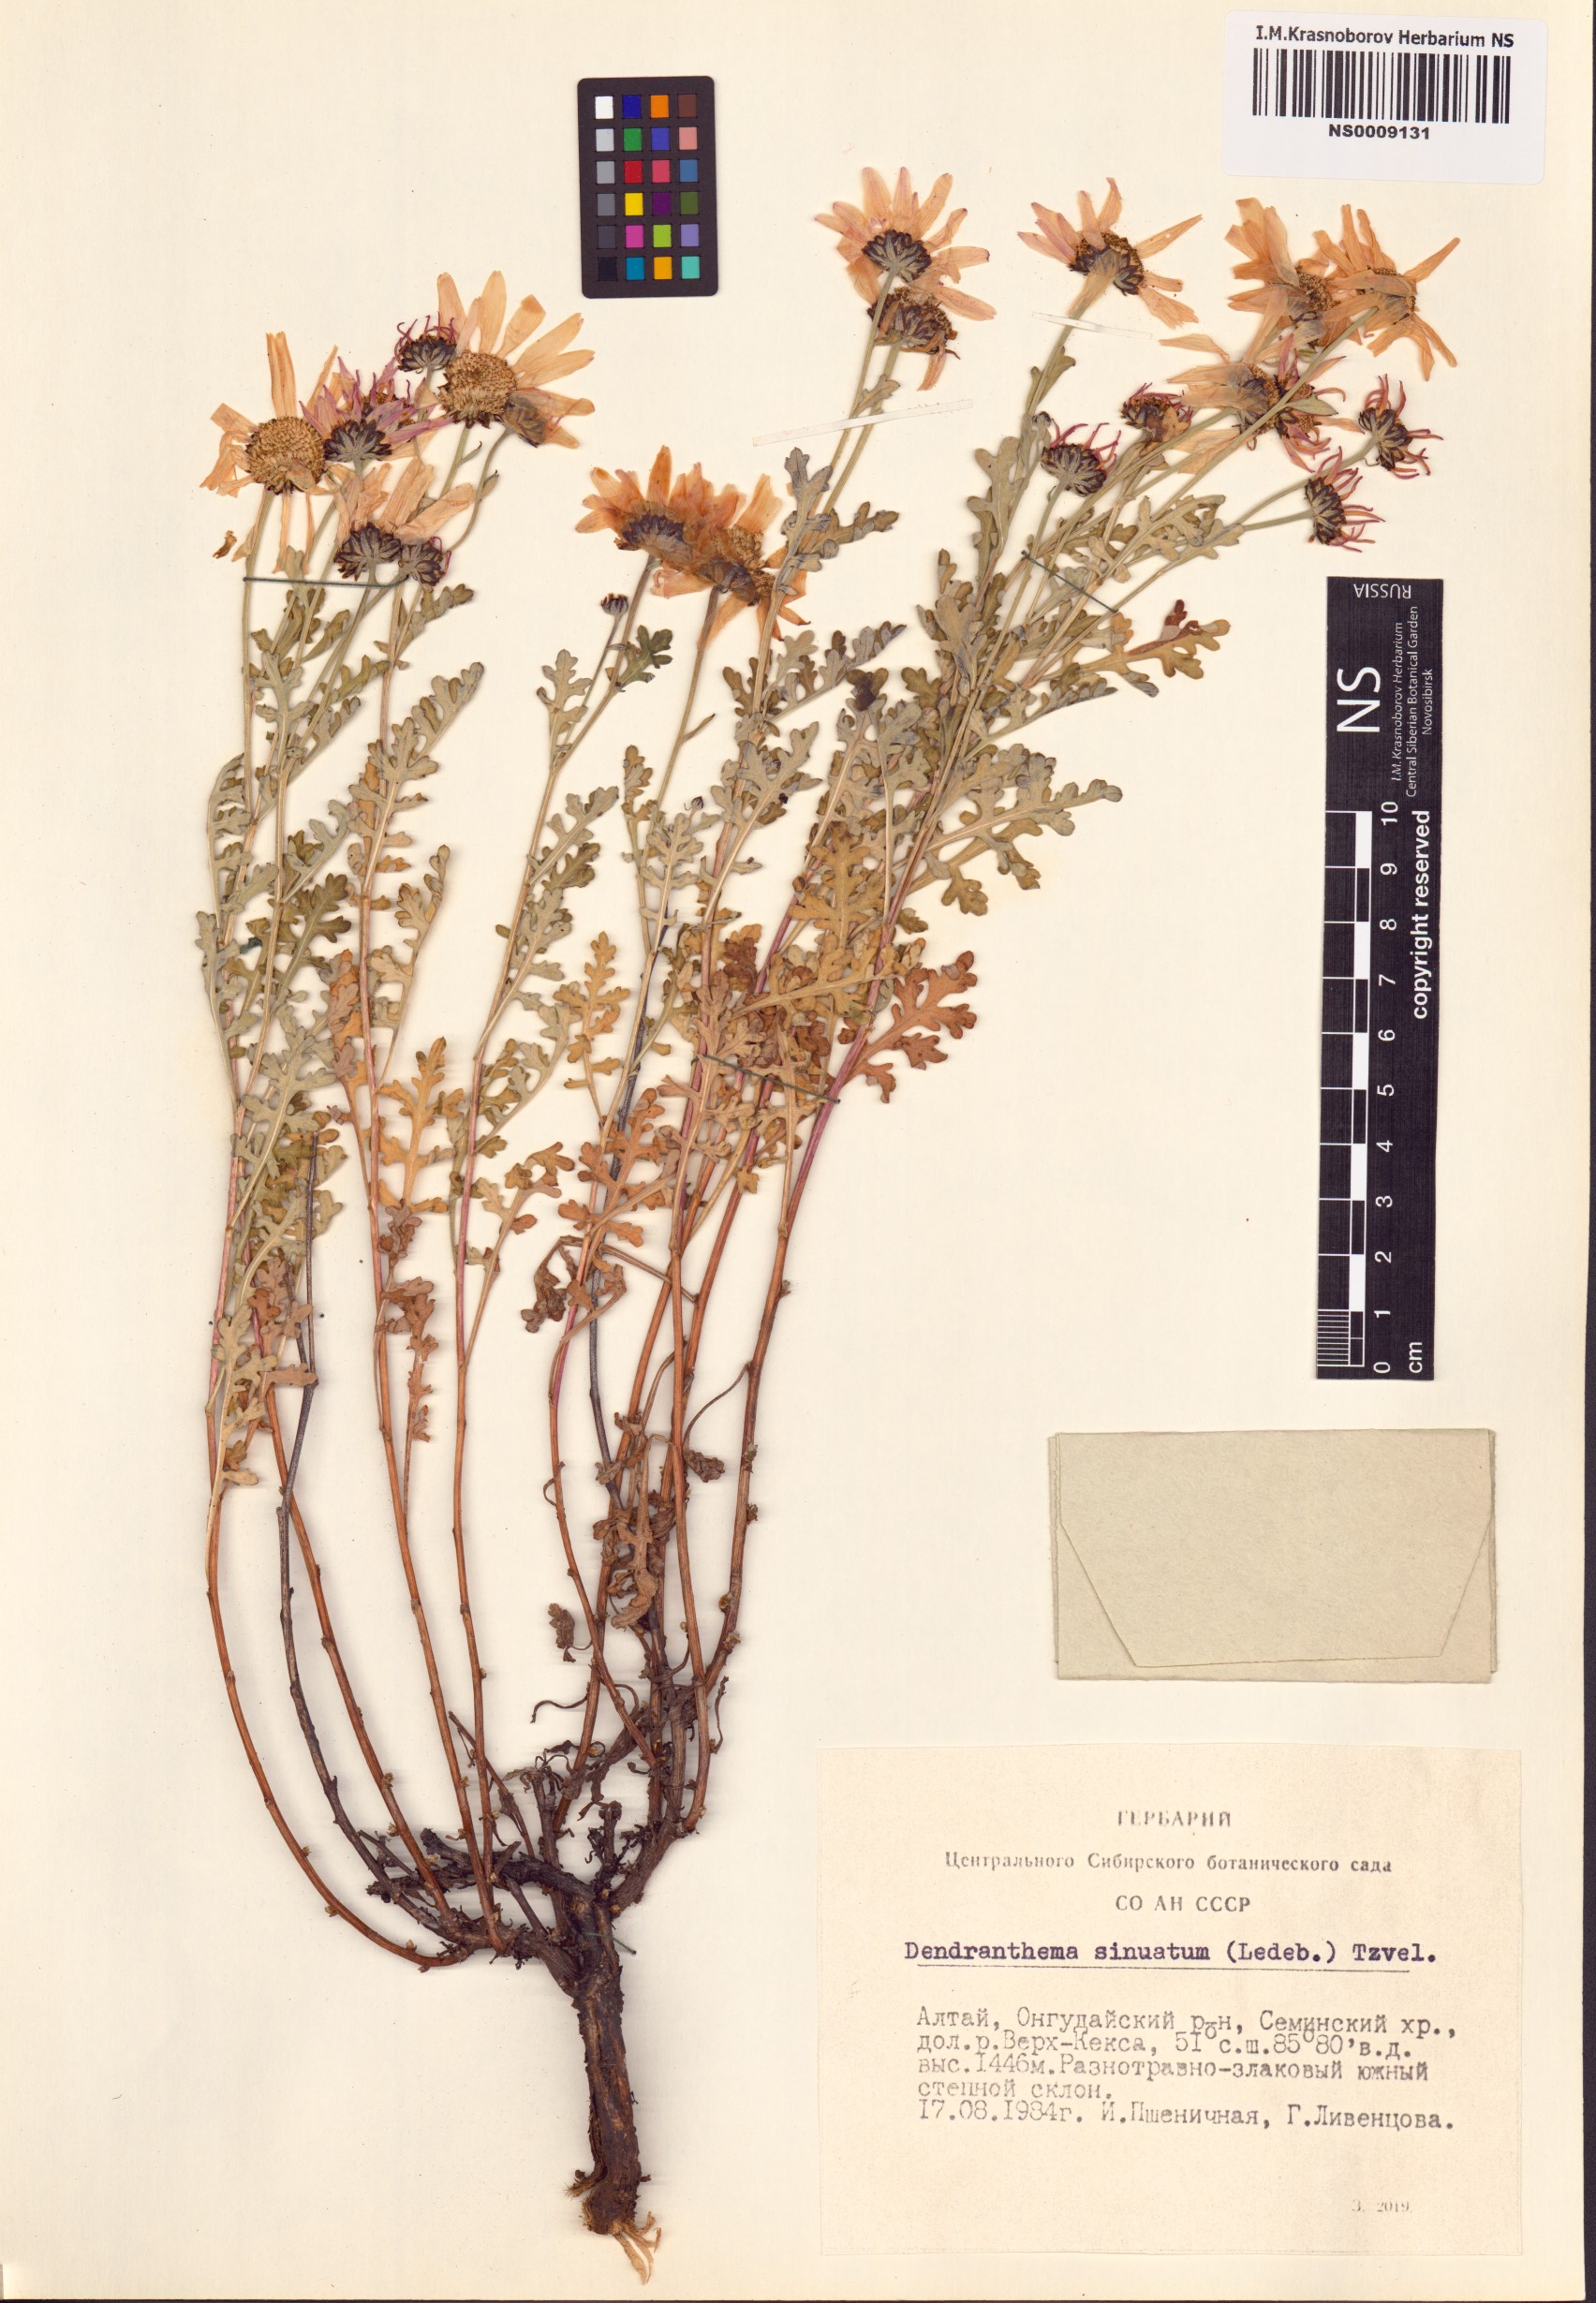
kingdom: Plantae
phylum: Tracheophyta
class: Magnoliopsida
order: Asterales
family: Asteraceae
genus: Chrysanthemum
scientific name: Chrysanthemum sinuatum
